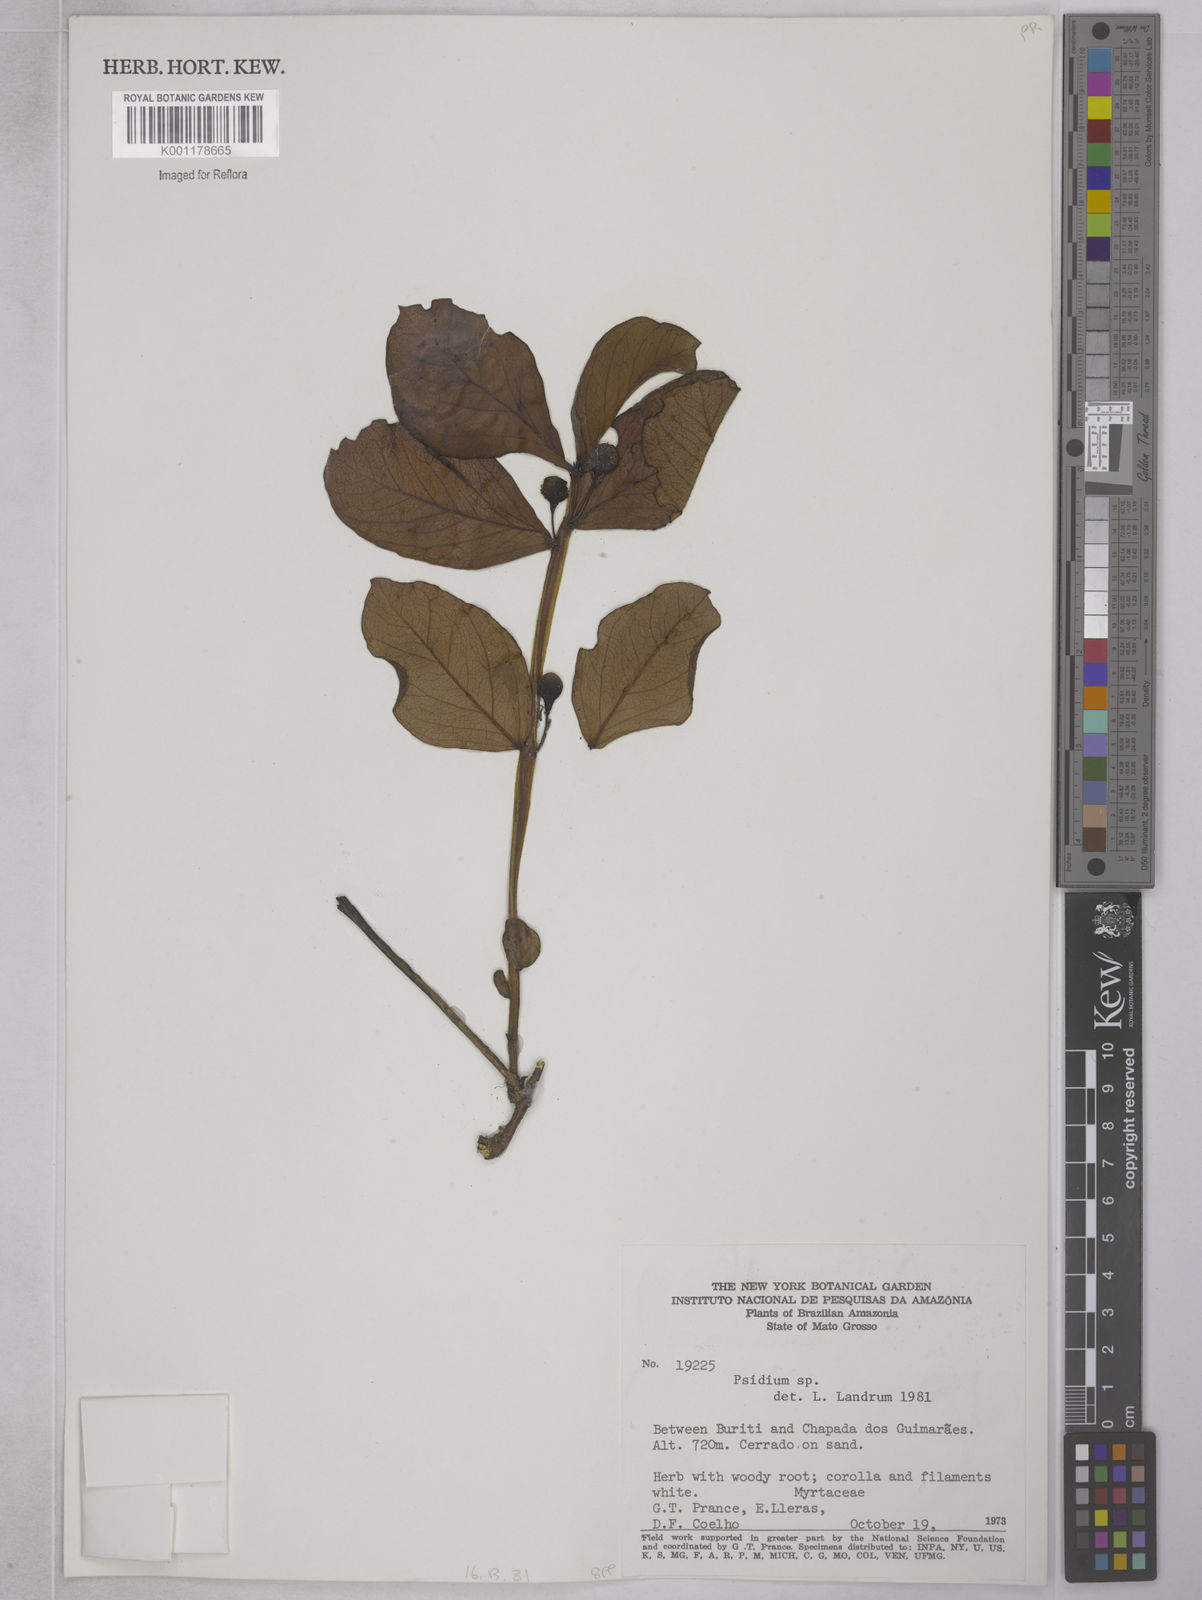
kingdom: Plantae
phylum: Tracheophyta
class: Magnoliopsida
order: Myrtales
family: Myrtaceae
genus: Psidium
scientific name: Psidium grandifolium
